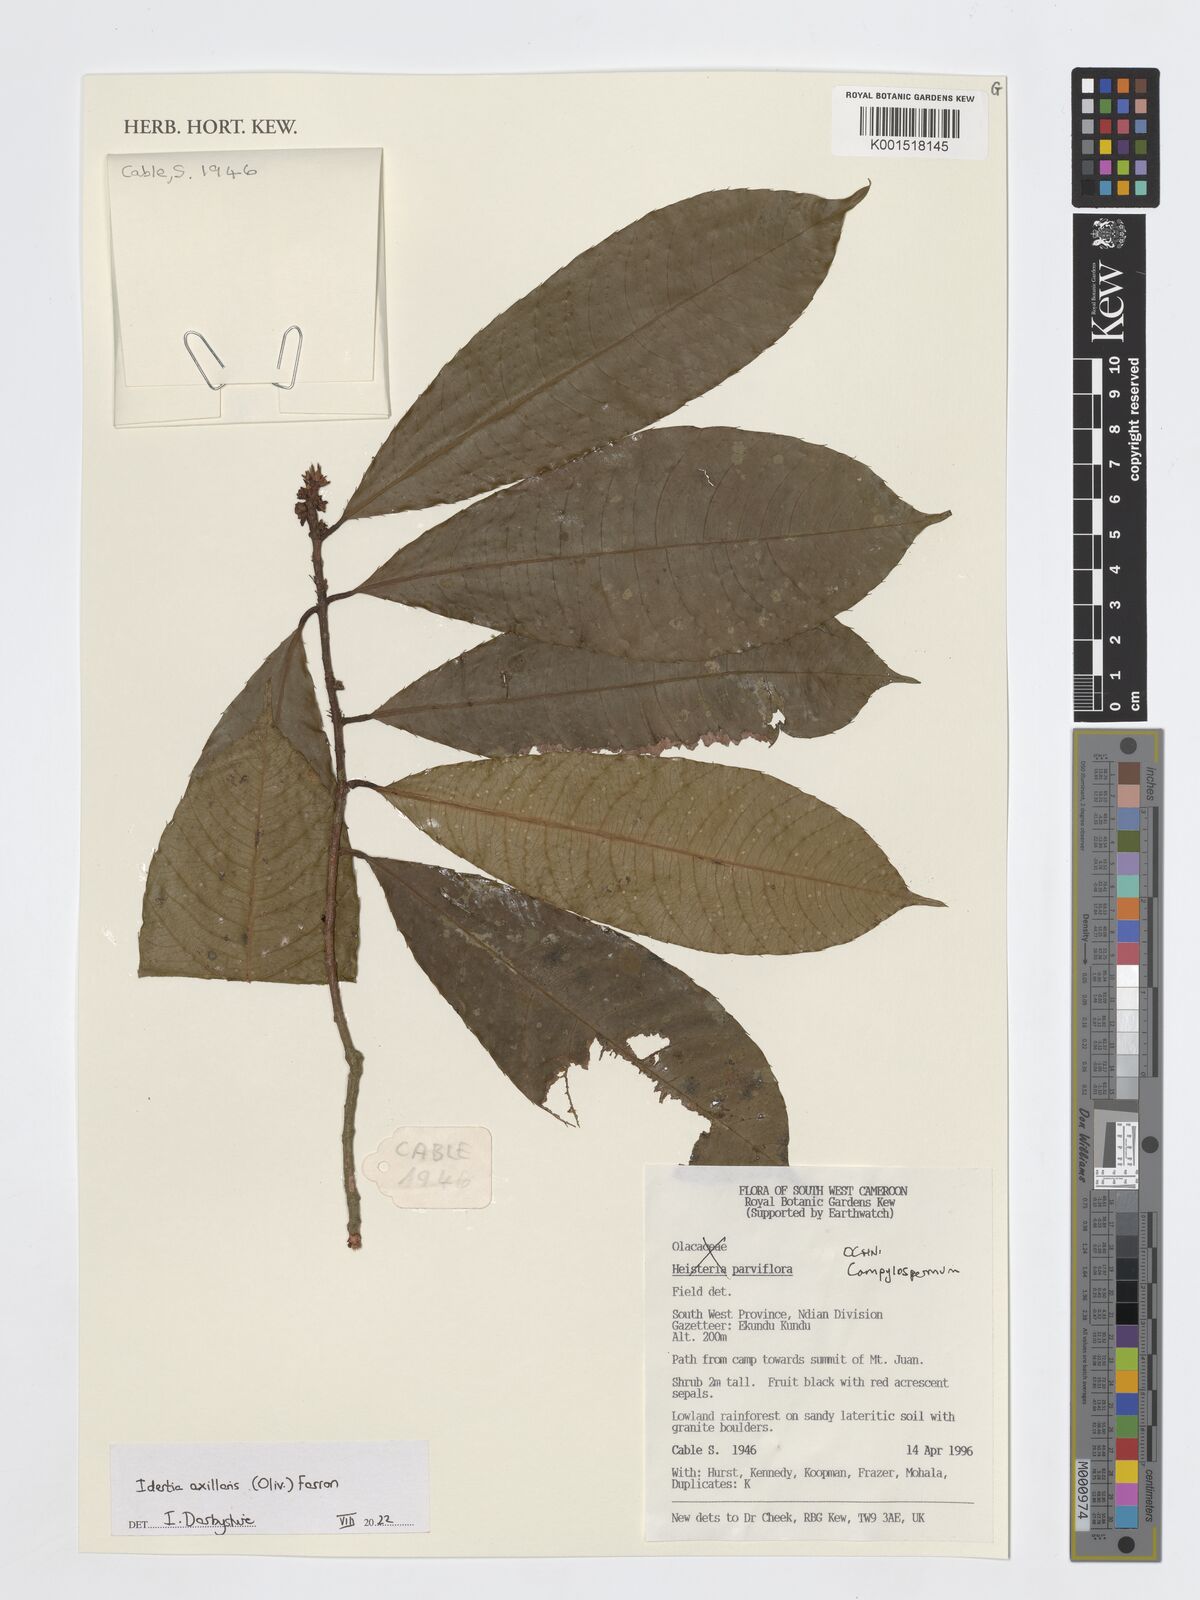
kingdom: Plantae
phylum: Tracheophyta
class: Magnoliopsida
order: Malpighiales
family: Ochnaceae
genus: Idertia
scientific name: Idertia axillaris
